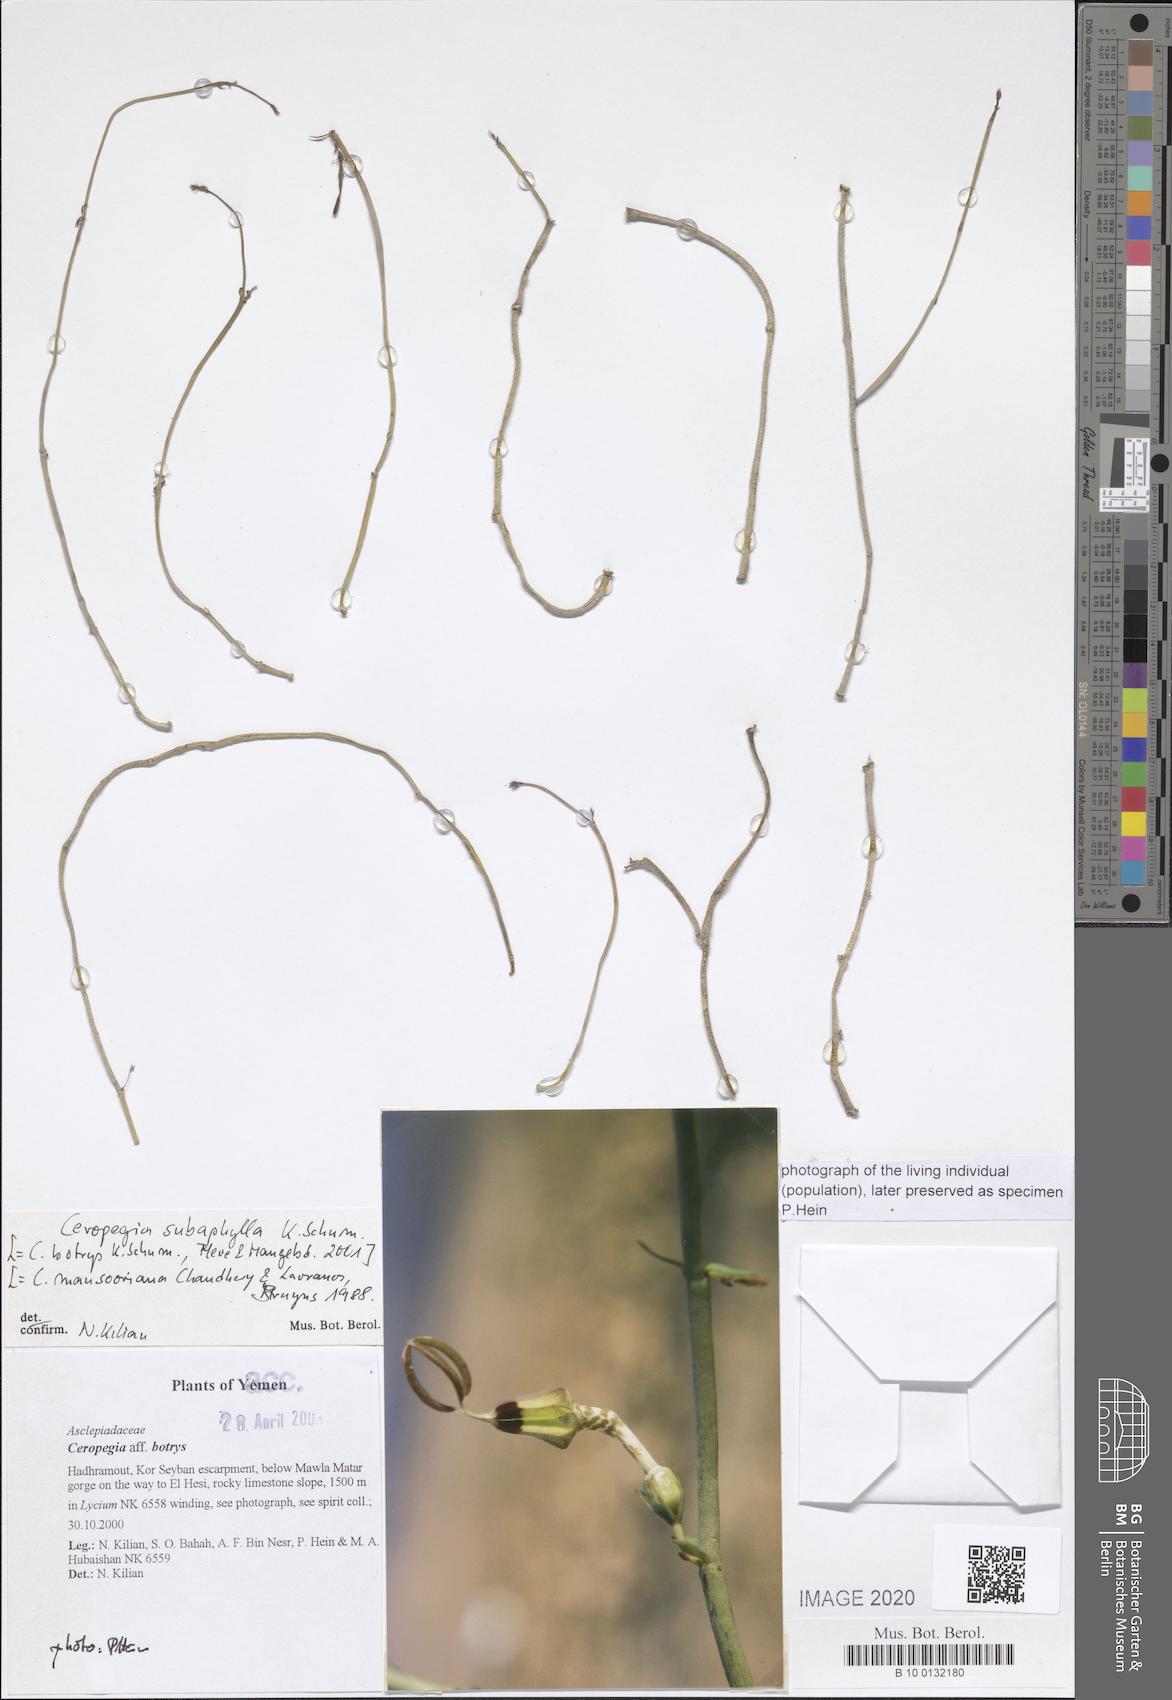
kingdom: Plantae
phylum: Tracheophyta
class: Magnoliopsida
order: Gentianales
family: Apocynaceae
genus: Ceropegia
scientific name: Ceropegia subaphylla
